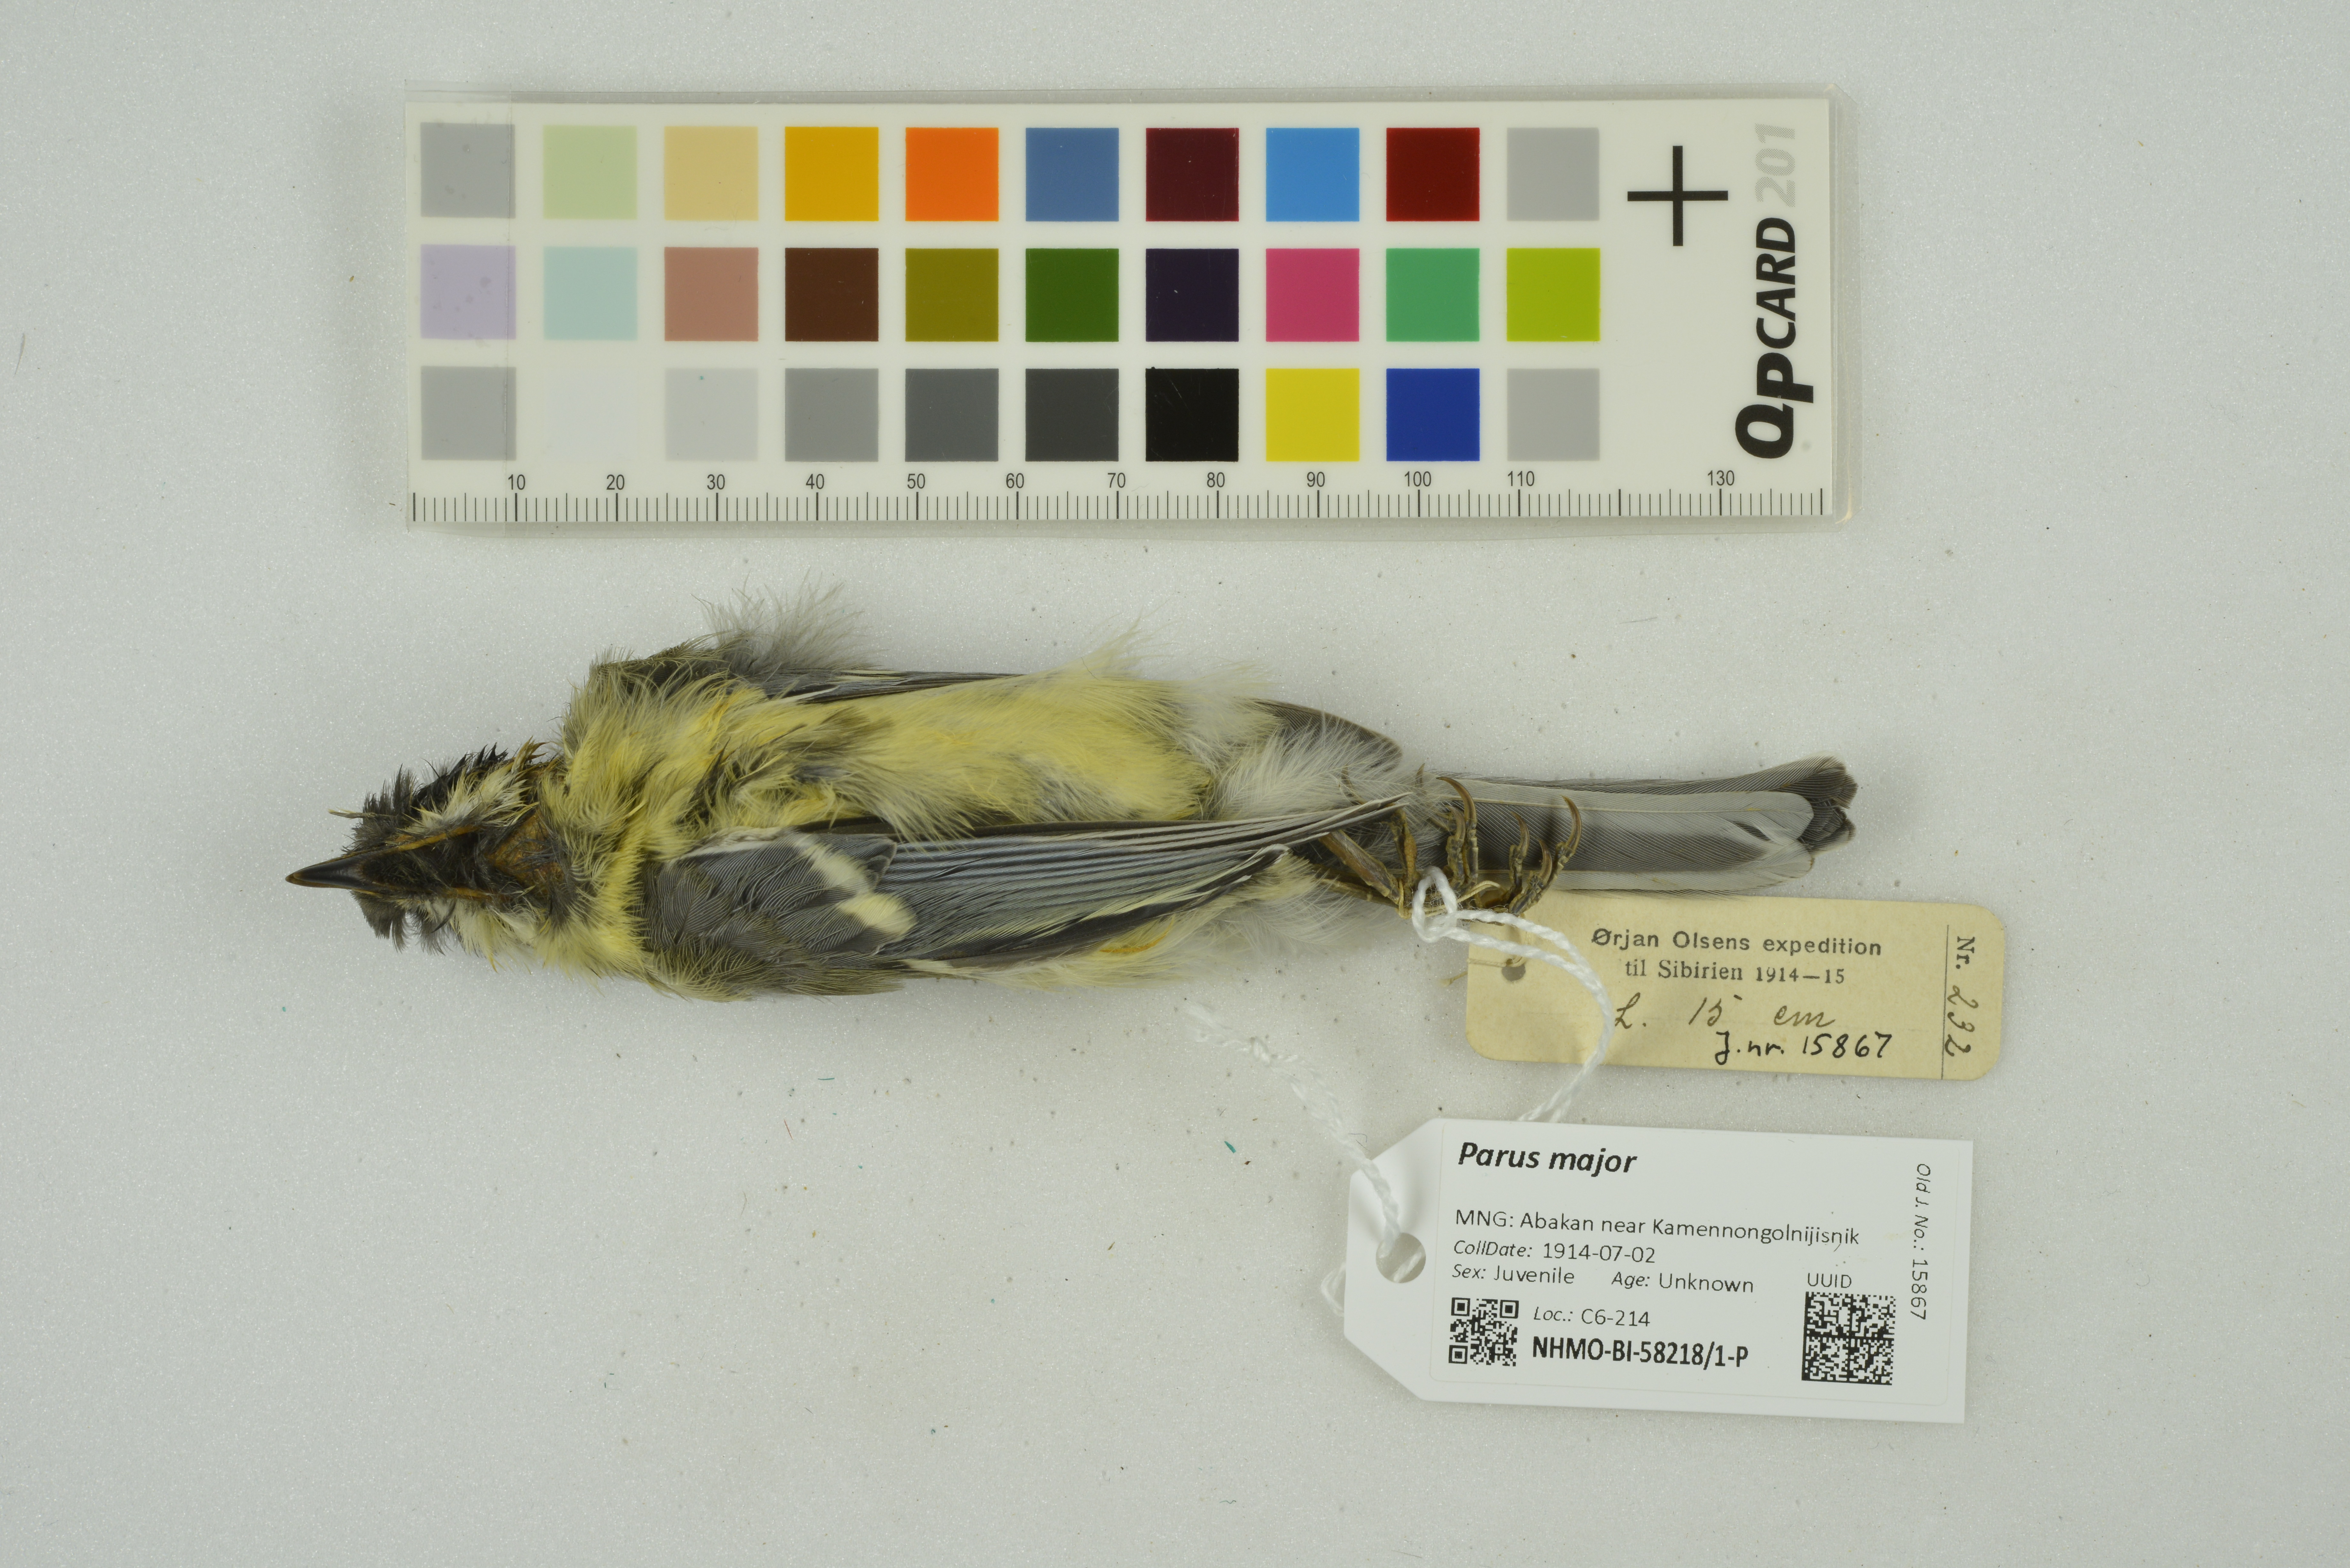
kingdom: Animalia
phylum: Chordata
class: Aves
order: Passeriformes
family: Paridae
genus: Parus
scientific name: Parus major
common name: Great tit
